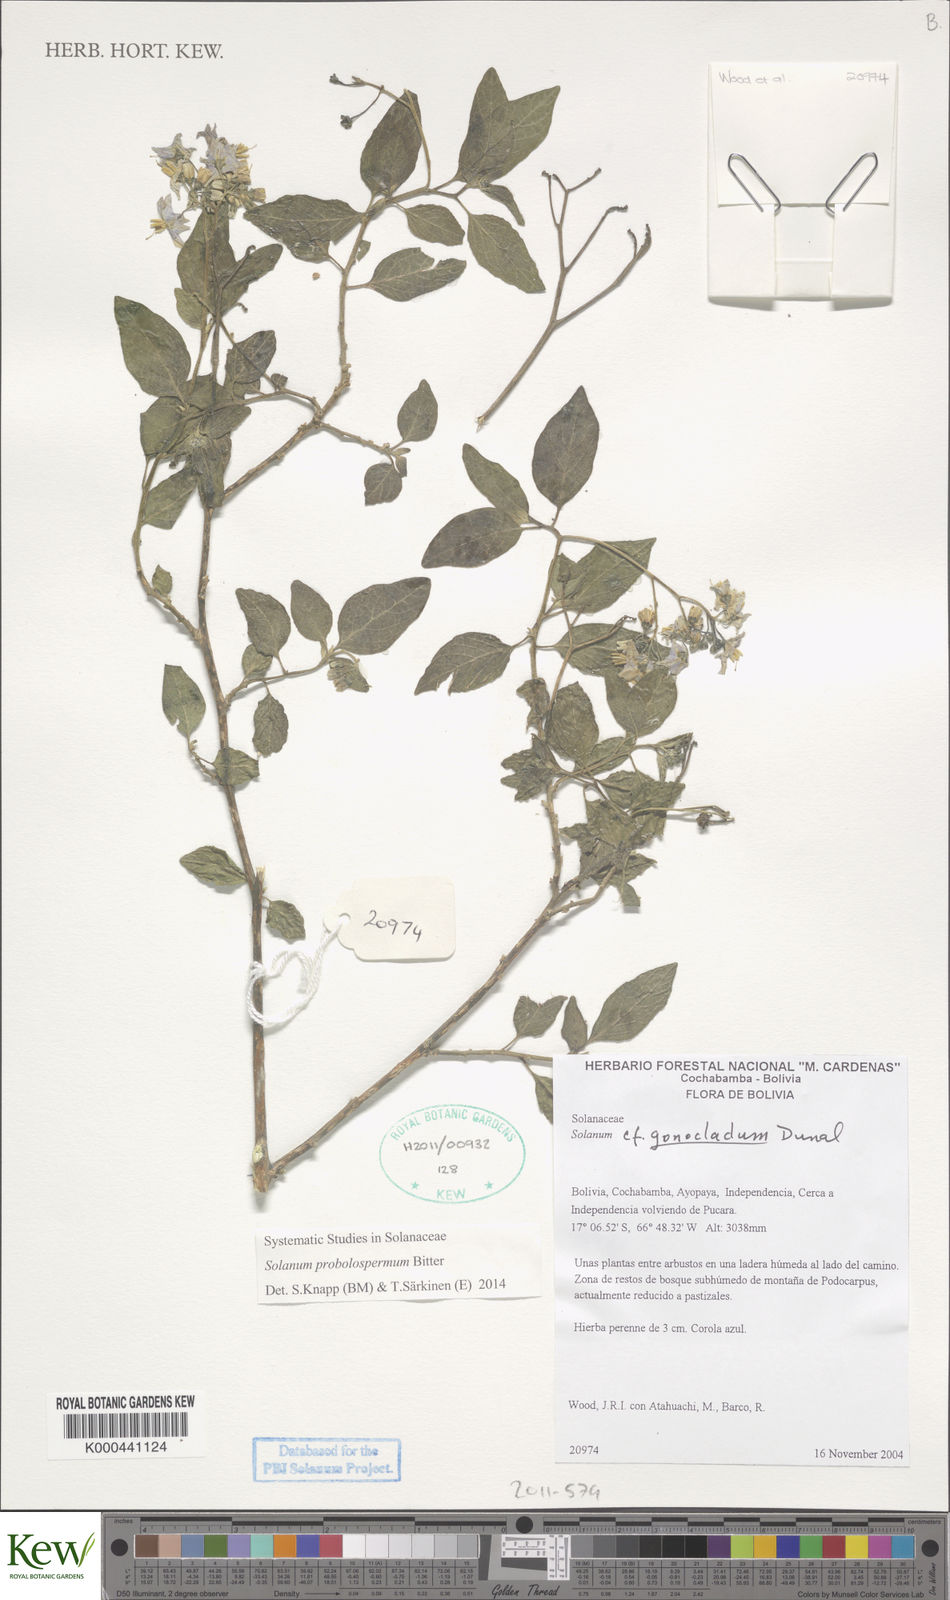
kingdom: Plantae
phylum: Tracheophyta
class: Magnoliopsida
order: Solanales
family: Solanaceae
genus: Solanum
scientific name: Solanum probolospermum
